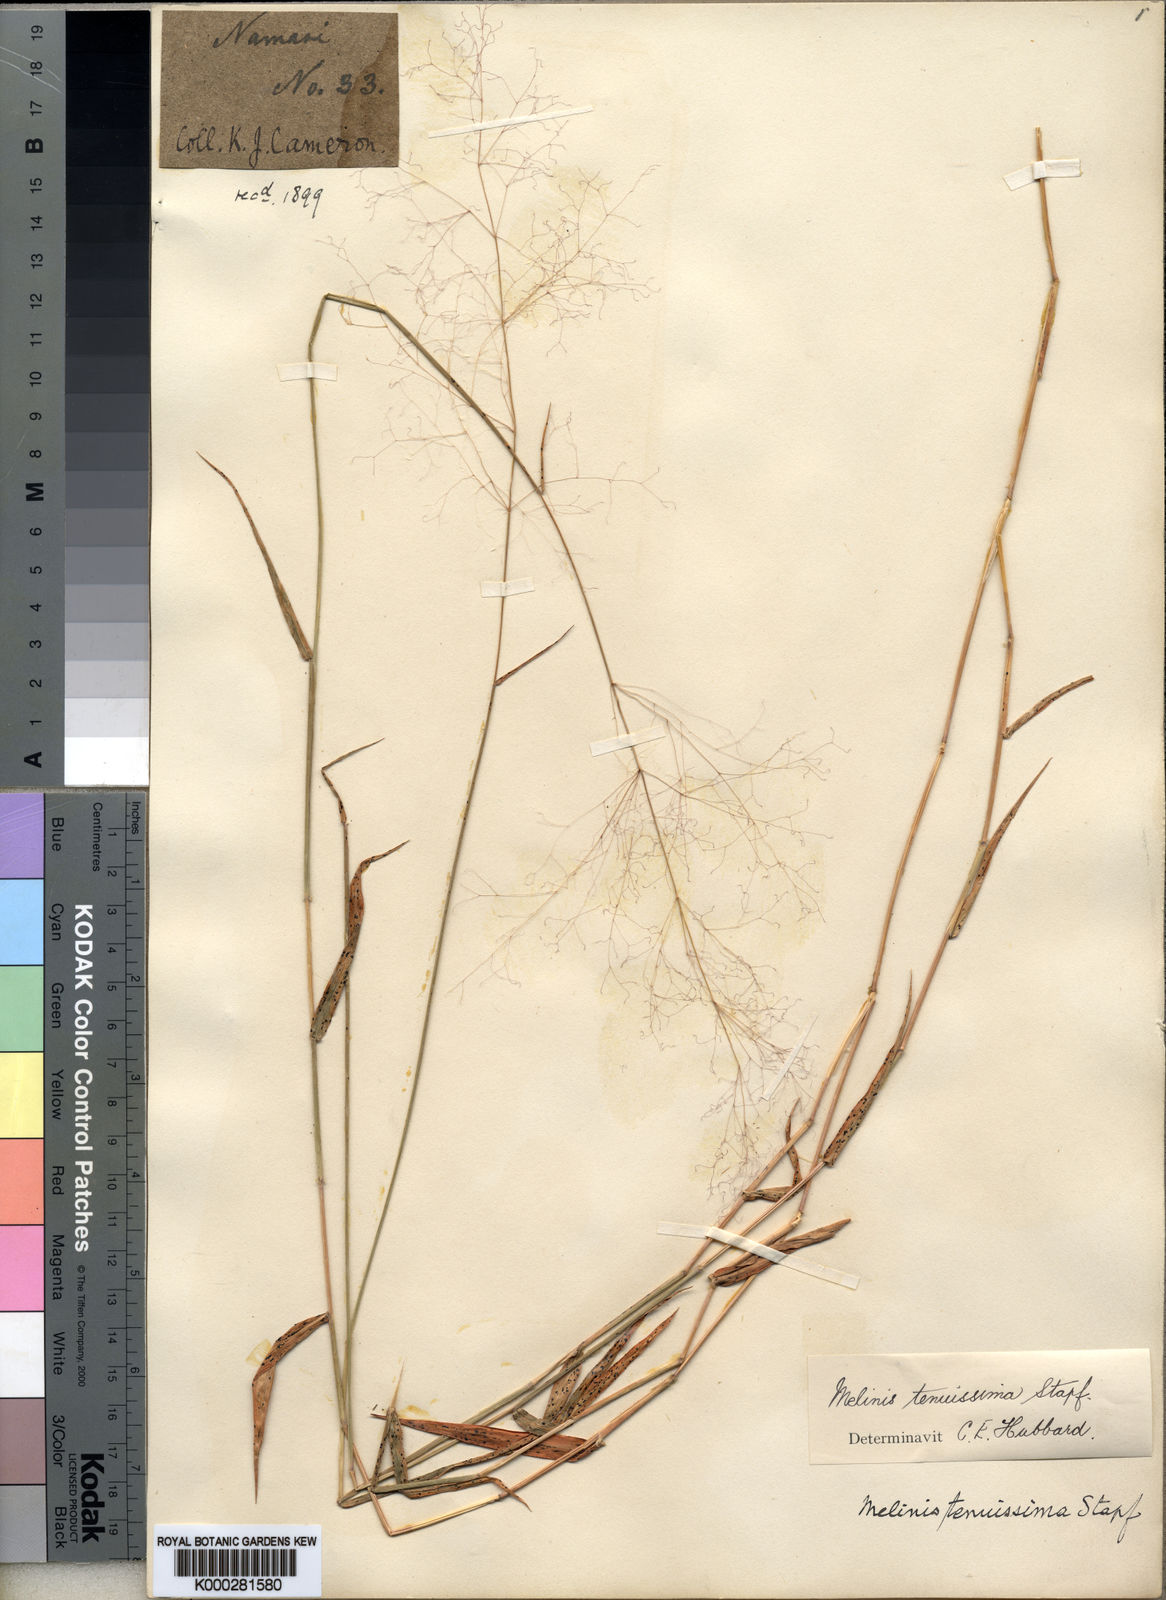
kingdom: Plantae
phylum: Tracheophyta
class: Liliopsida
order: Poales
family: Poaceae
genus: Melinis
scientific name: Melinis tenuissima
